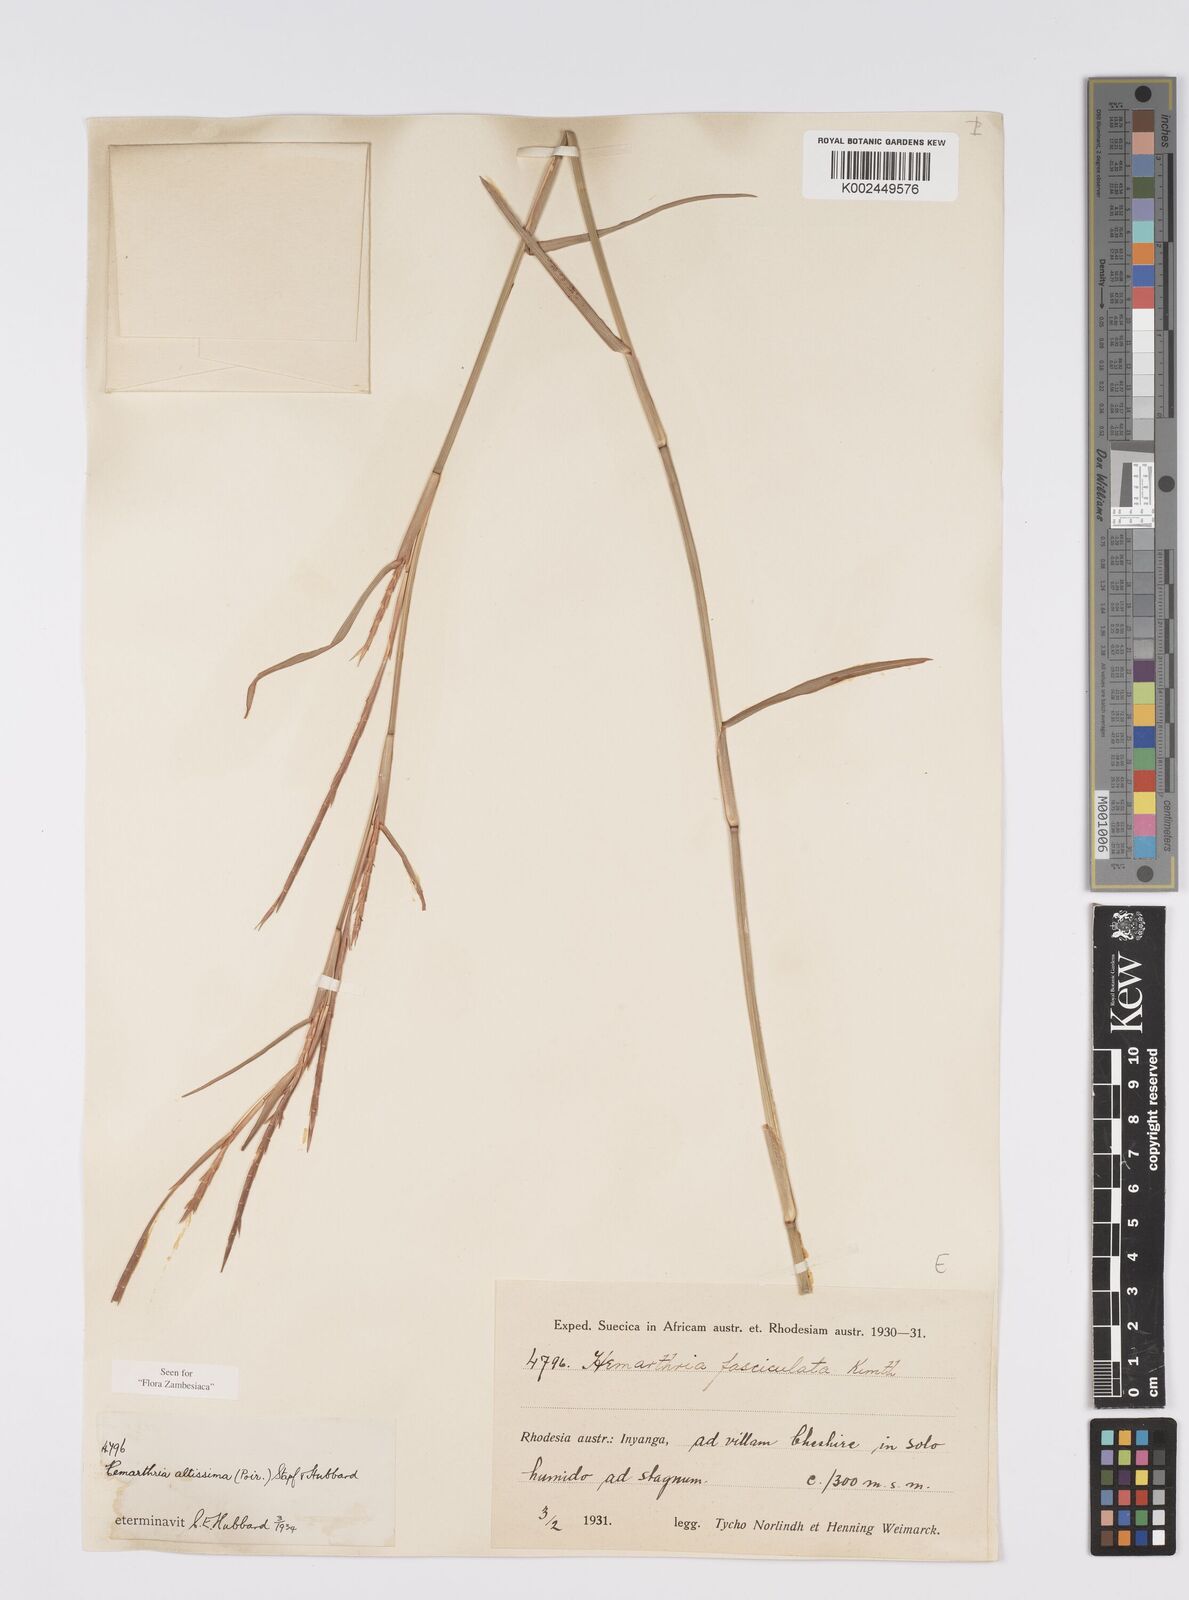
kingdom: Plantae
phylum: Tracheophyta
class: Liliopsida
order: Poales
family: Poaceae
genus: Hemarthria
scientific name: Hemarthria altissima
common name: African jointgrass
